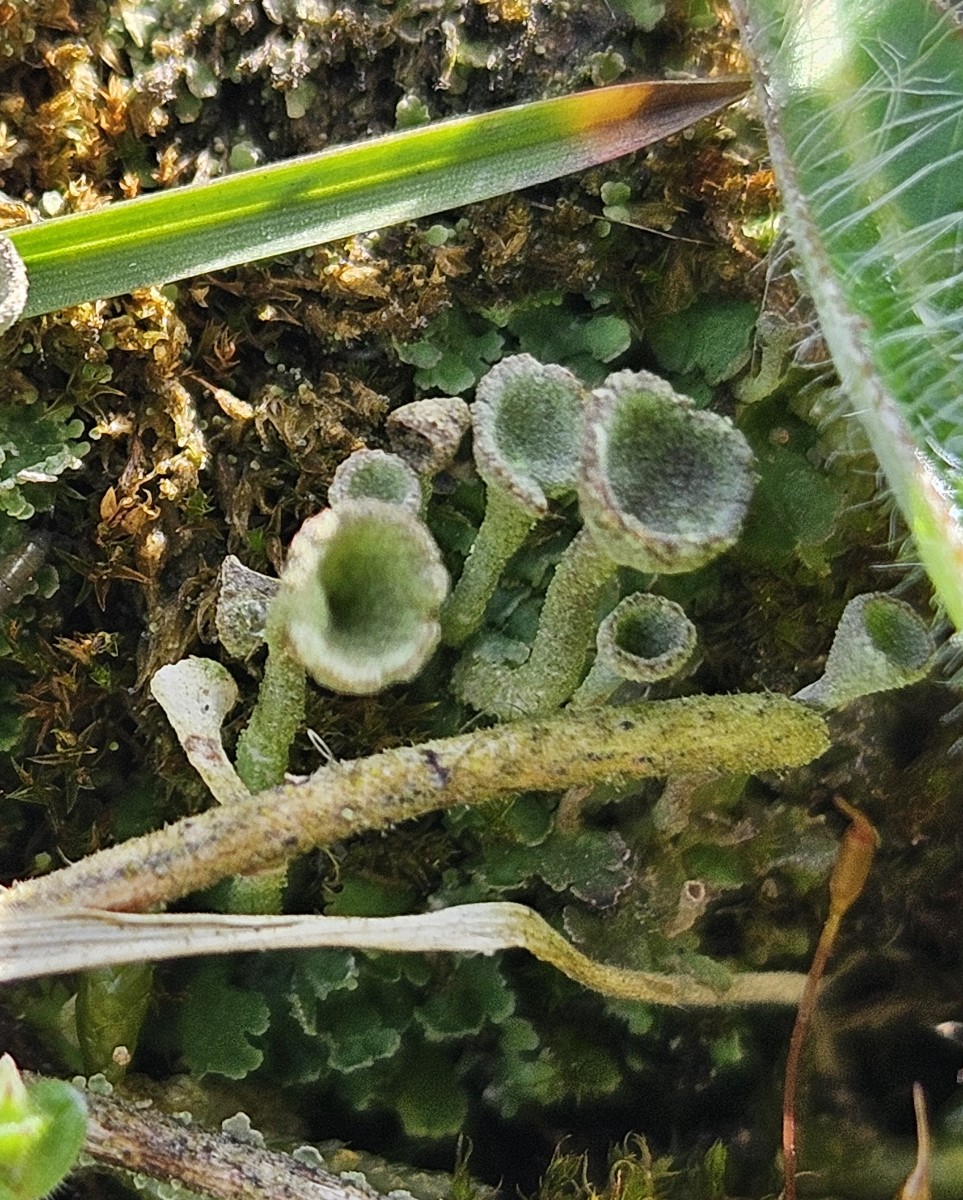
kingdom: Fungi
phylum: Ascomycota
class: Lecanoromycetes
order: Lecanorales
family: Cladoniaceae
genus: Cladonia
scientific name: Cladonia
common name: brungrøn bægerlav
